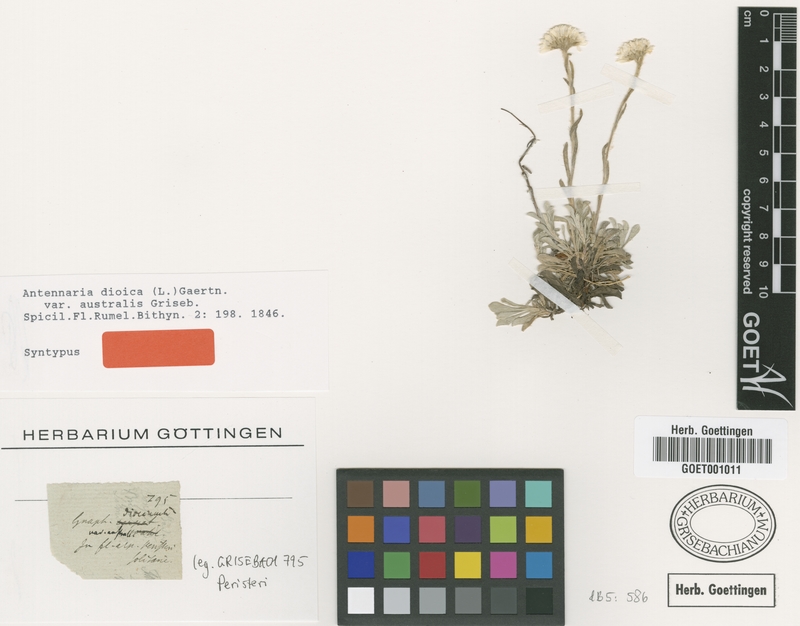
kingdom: Plantae
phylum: Tracheophyta
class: Magnoliopsida
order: Asterales
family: Asteraceae
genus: Antennaria
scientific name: Antennaria dioica
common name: Mountain everlasting
